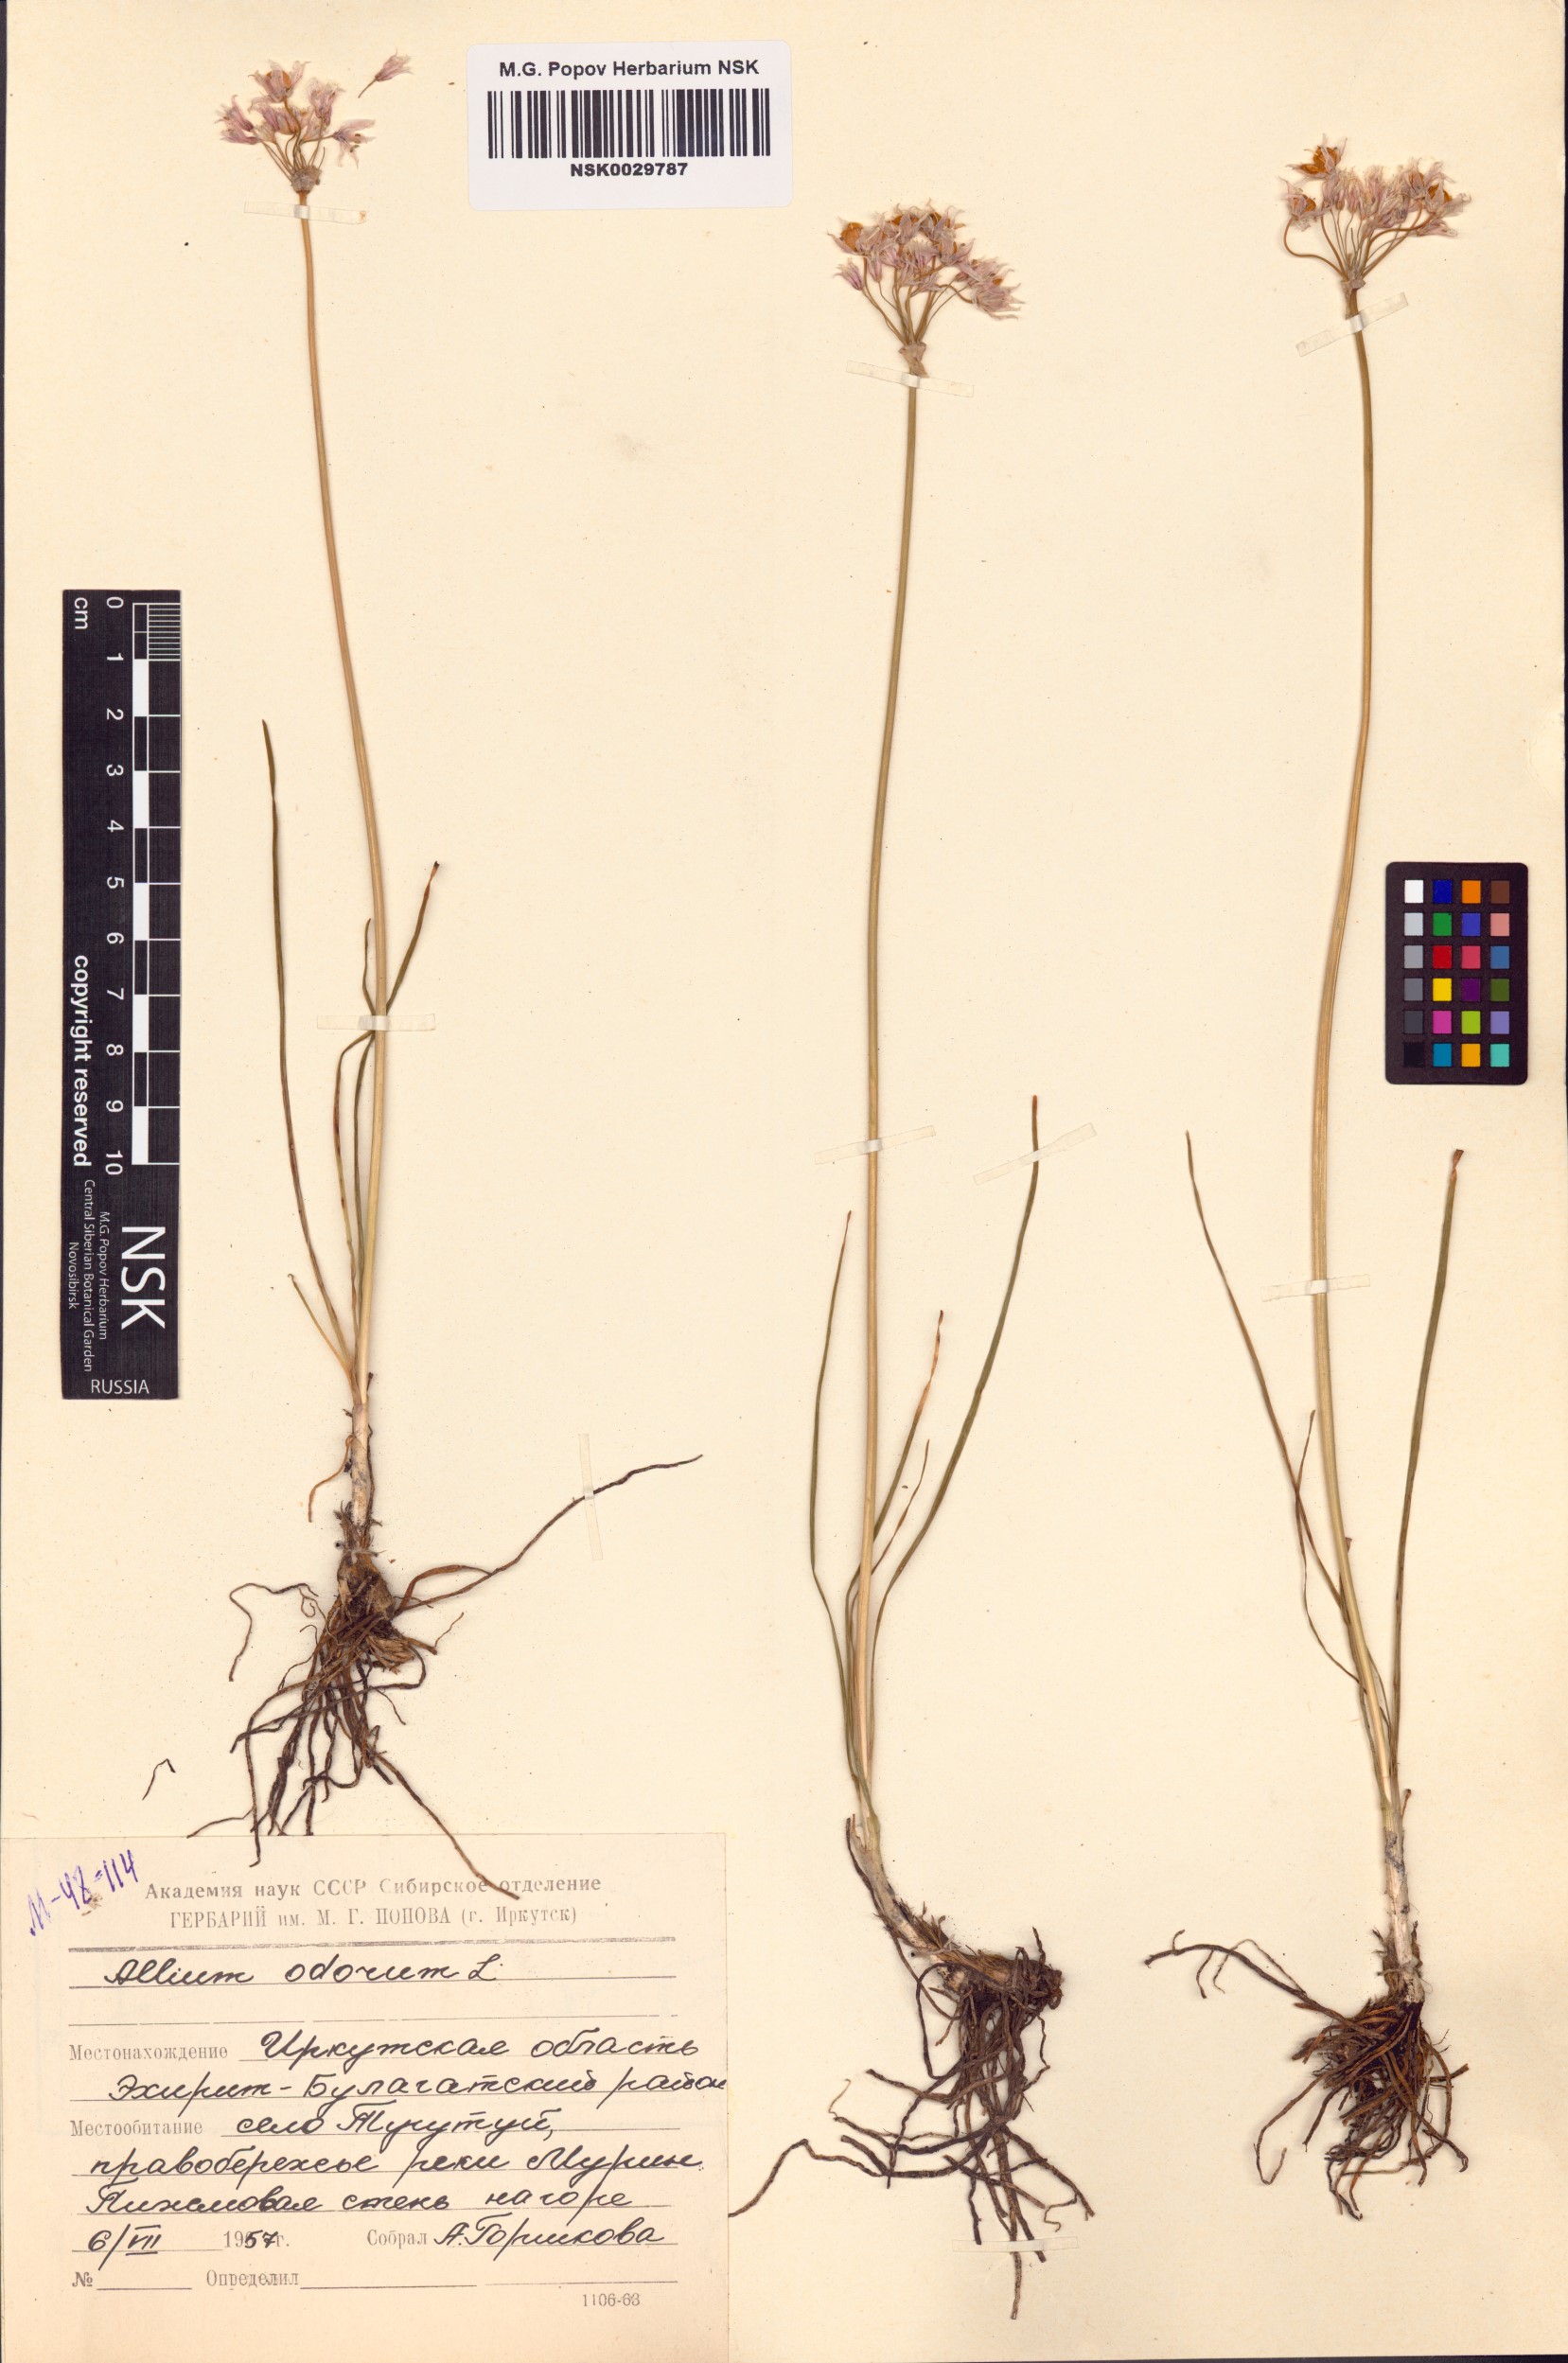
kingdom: Plantae
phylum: Tracheophyta
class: Liliopsida
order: Asparagales
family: Amaryllidaceae
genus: Allium
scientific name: Allium ramosum
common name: Fragrant garlic
